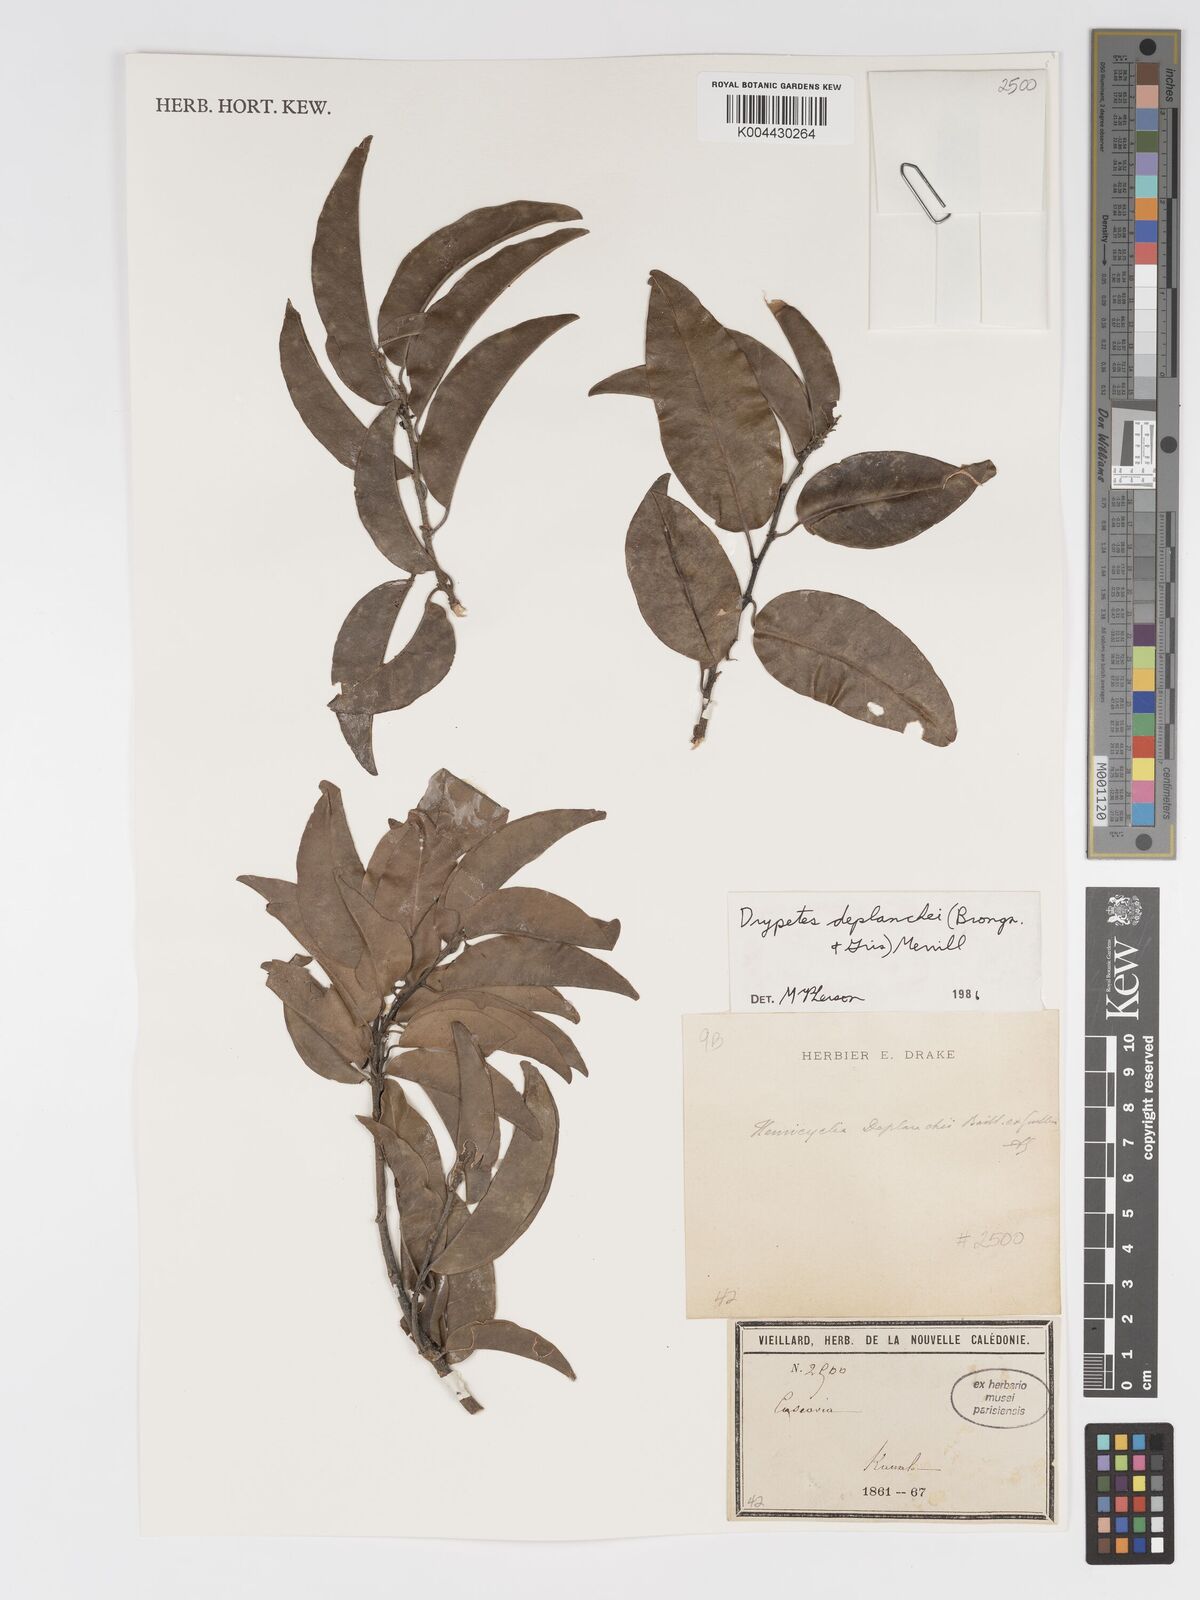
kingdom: Plantae
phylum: Tracheophyta
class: Magnoliopsida
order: Malpighiales
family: Putranjivaceae
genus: Drypetes
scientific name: Drypetes deplanchei
